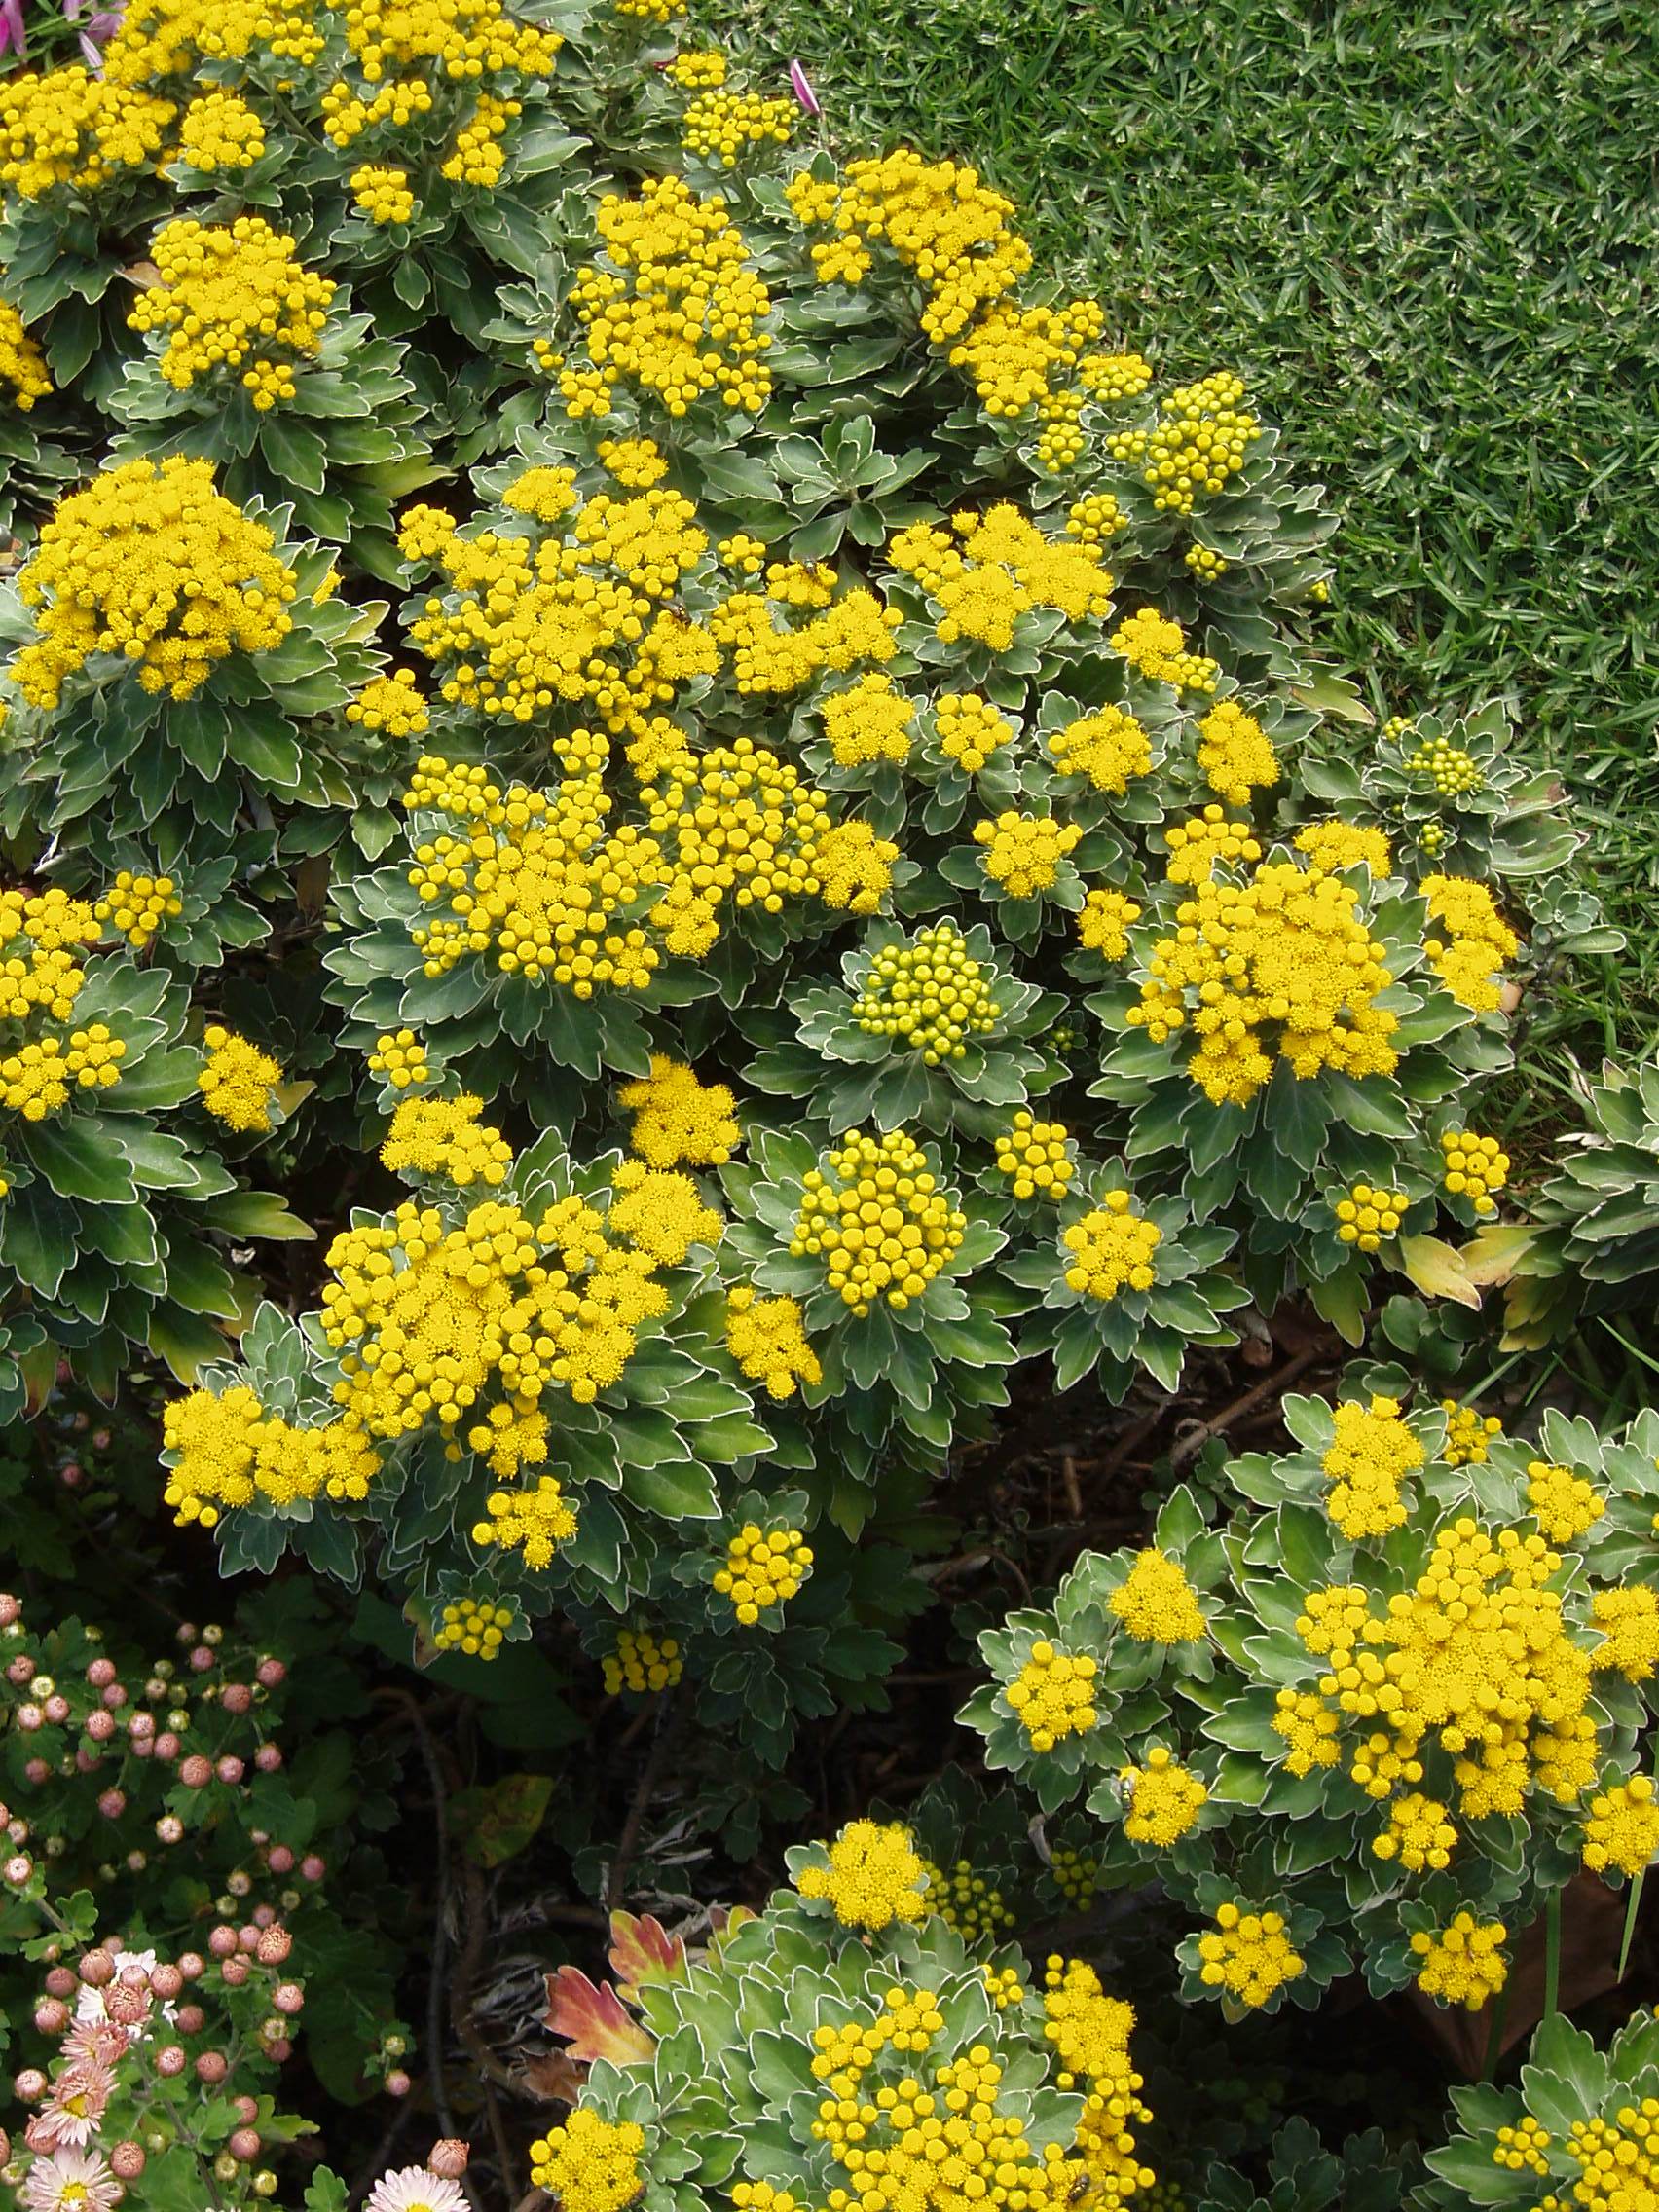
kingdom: Plantae
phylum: Tracheophyta
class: Magnoliopsida
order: Asterales
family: Asteraceae
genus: Ajania
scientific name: Ajania pacifica
